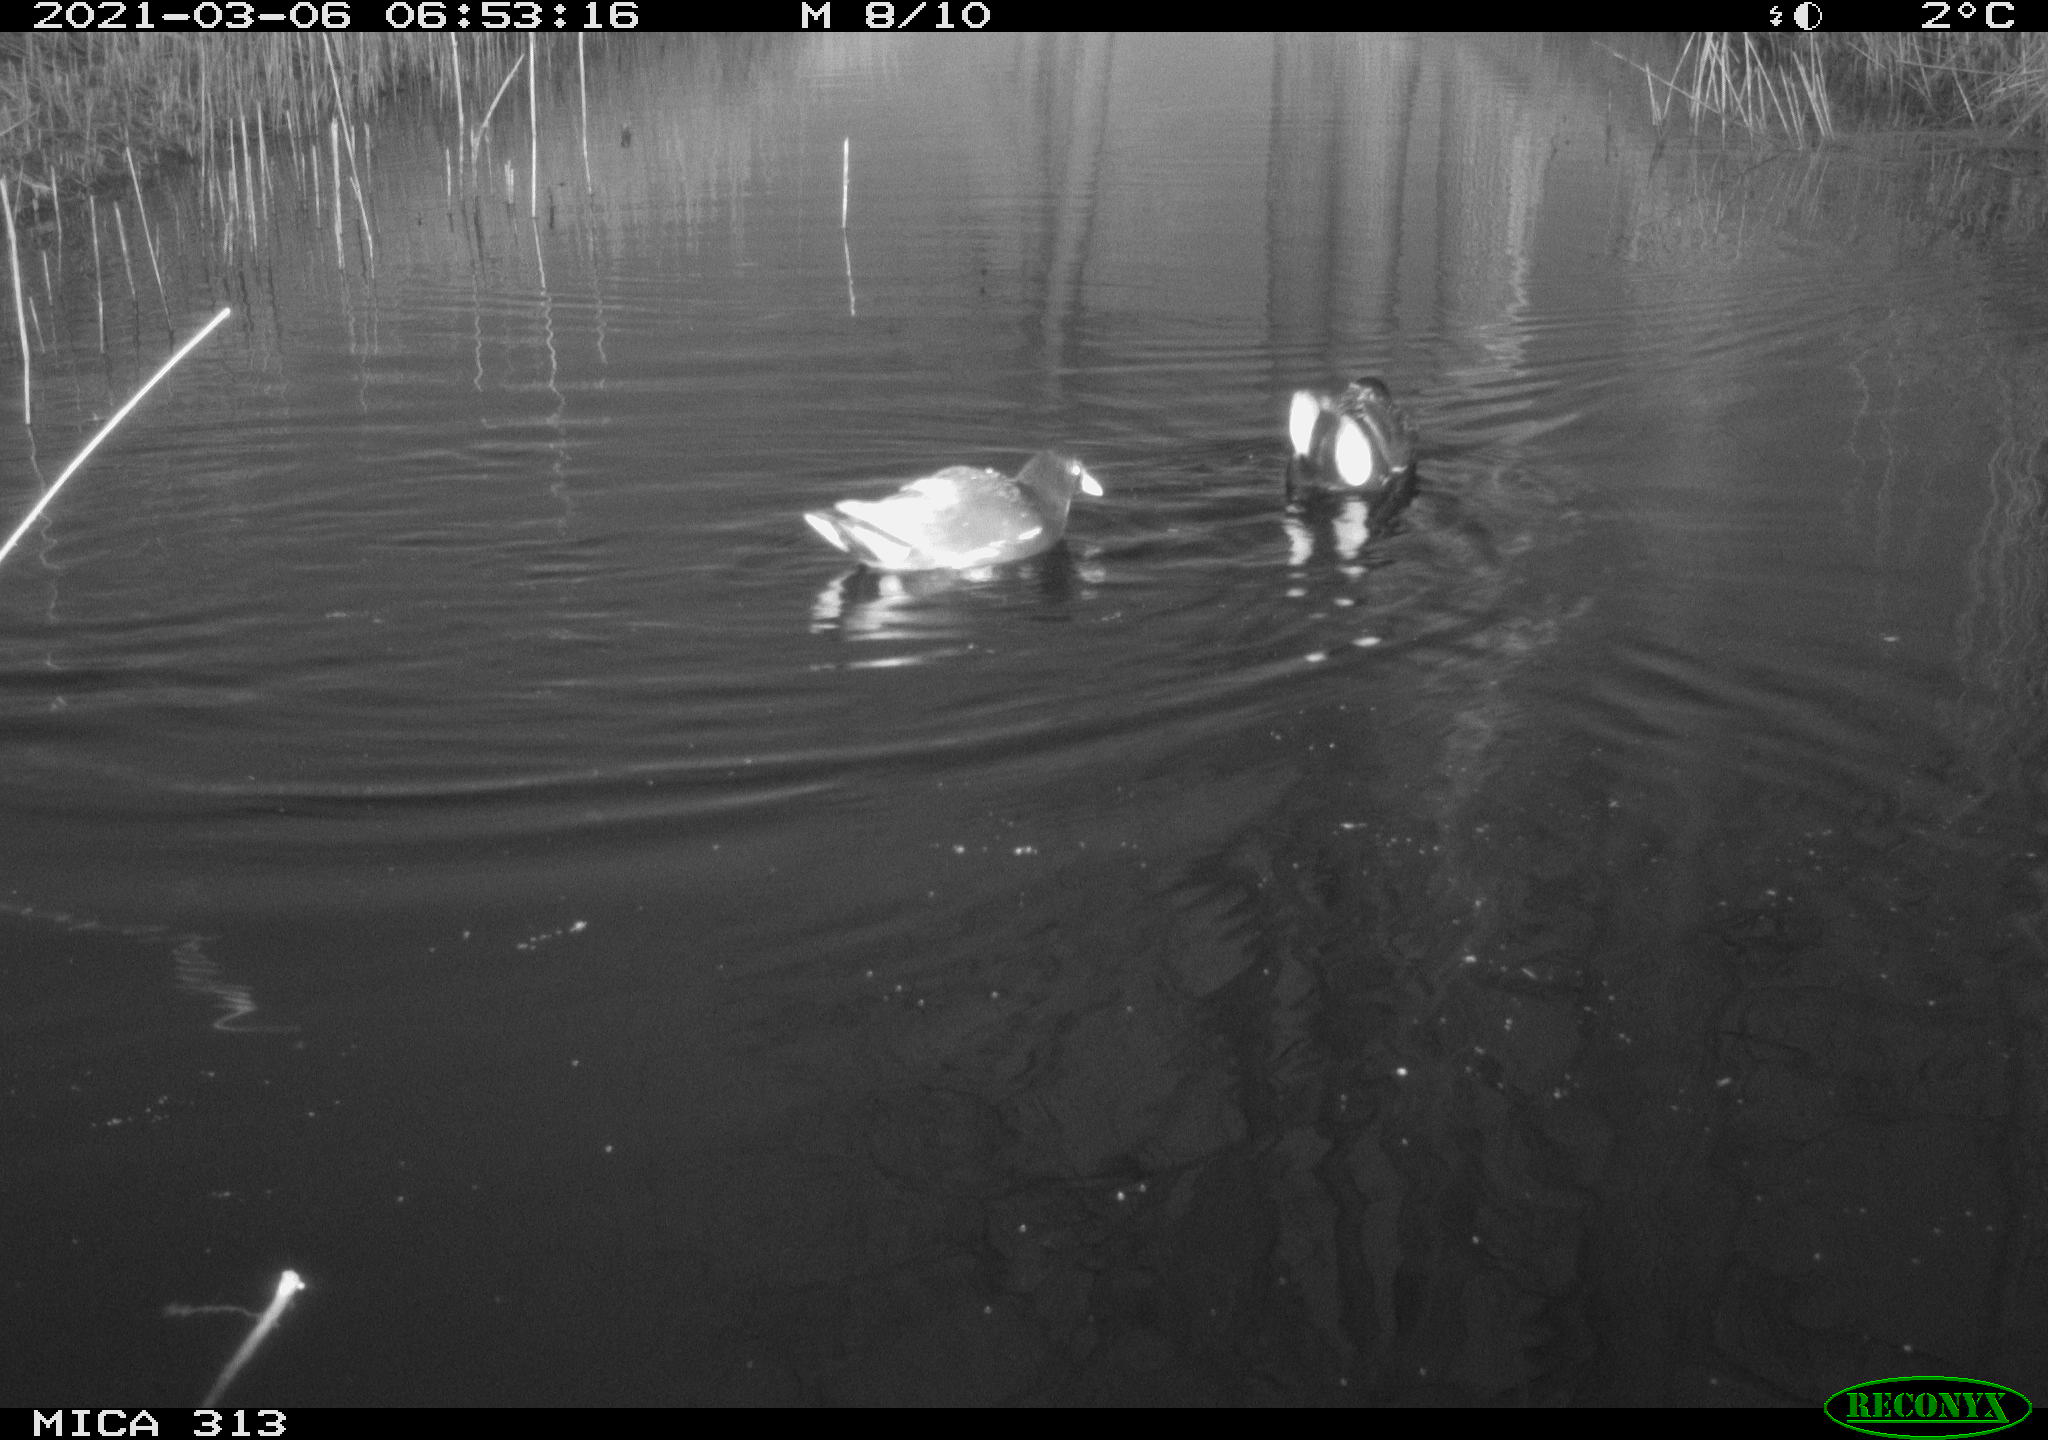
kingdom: Animalia
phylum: Chordata
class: Aves
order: Gruiformes
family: Rallidae
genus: Gallinula
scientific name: Gallinula chloropus
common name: Common moorhen
